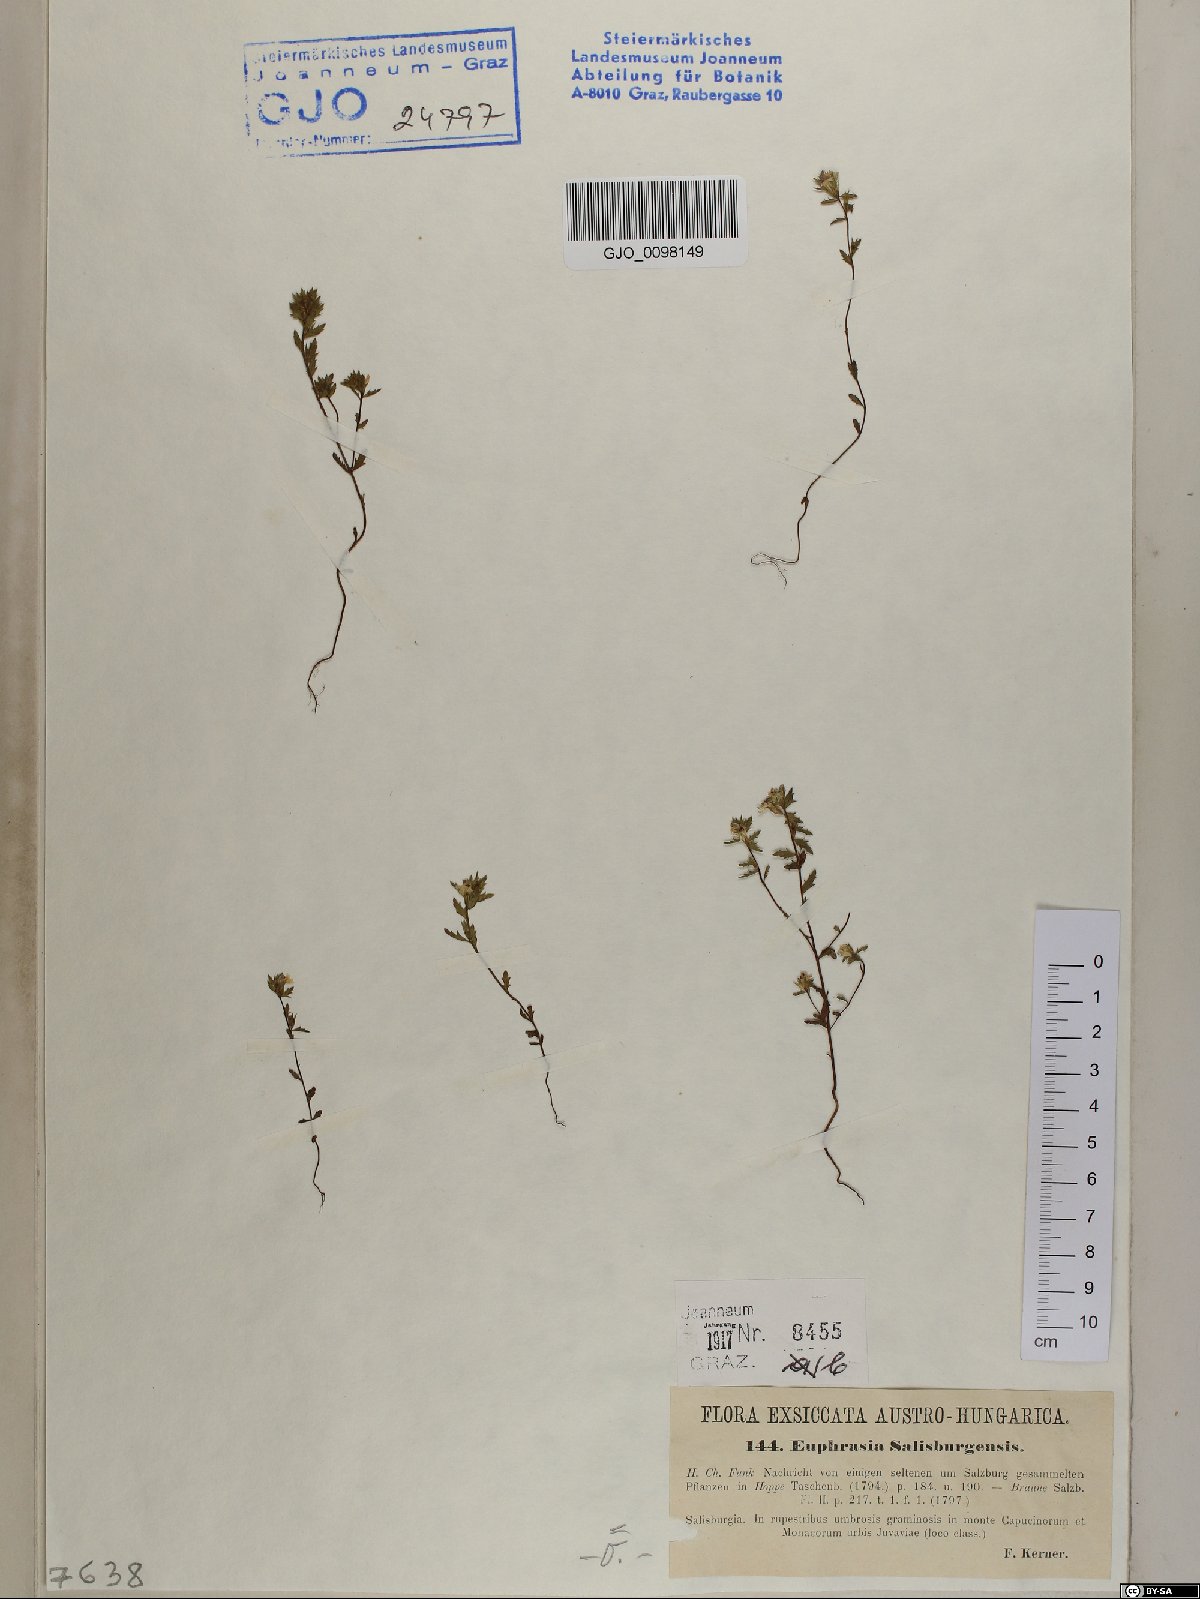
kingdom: Plantae
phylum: Tracheophyta
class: Magnoliopsida
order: Lamiales
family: Orobanchaceae
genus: Euphrasia
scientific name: Euphrasia salisburgensis
